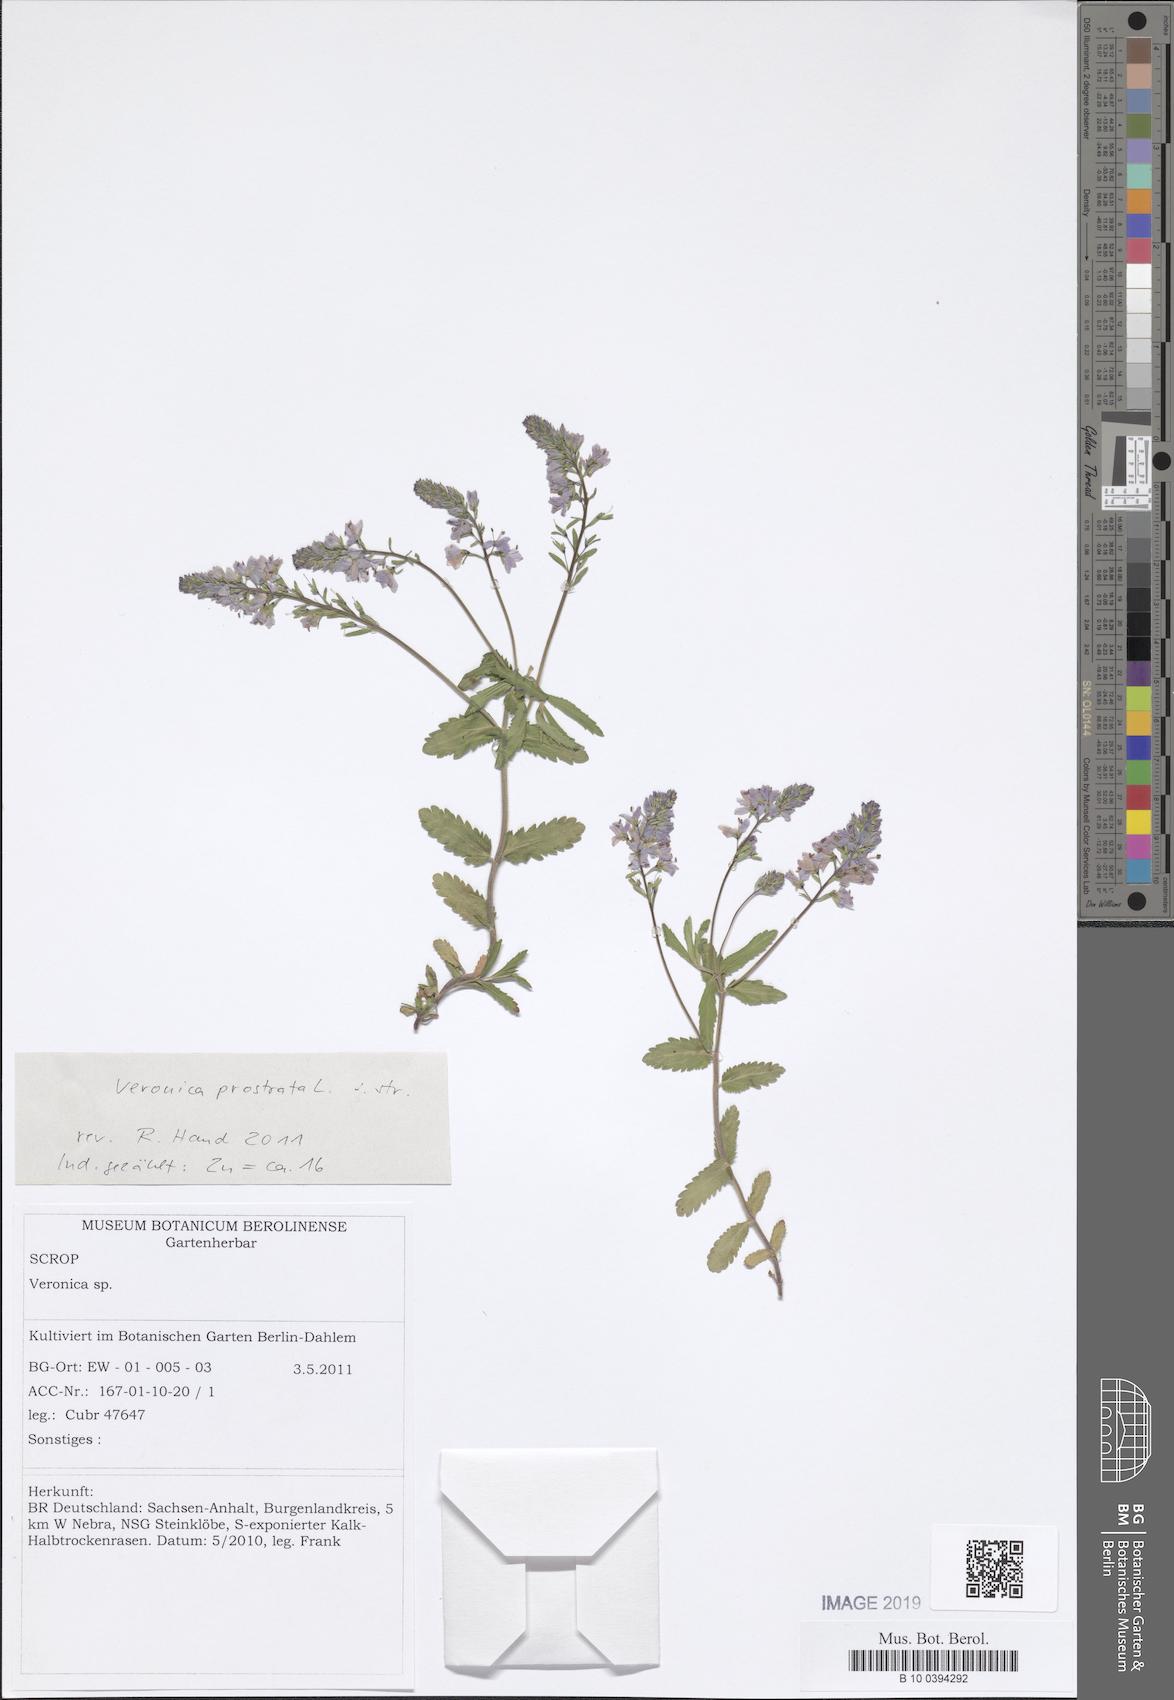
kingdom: Plantae
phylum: Tracheophyta
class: Magnoliopsida
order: Lamiales
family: Plantaginaceae
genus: Veronica
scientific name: Veronica prostrata
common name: Prostrate speedwell
